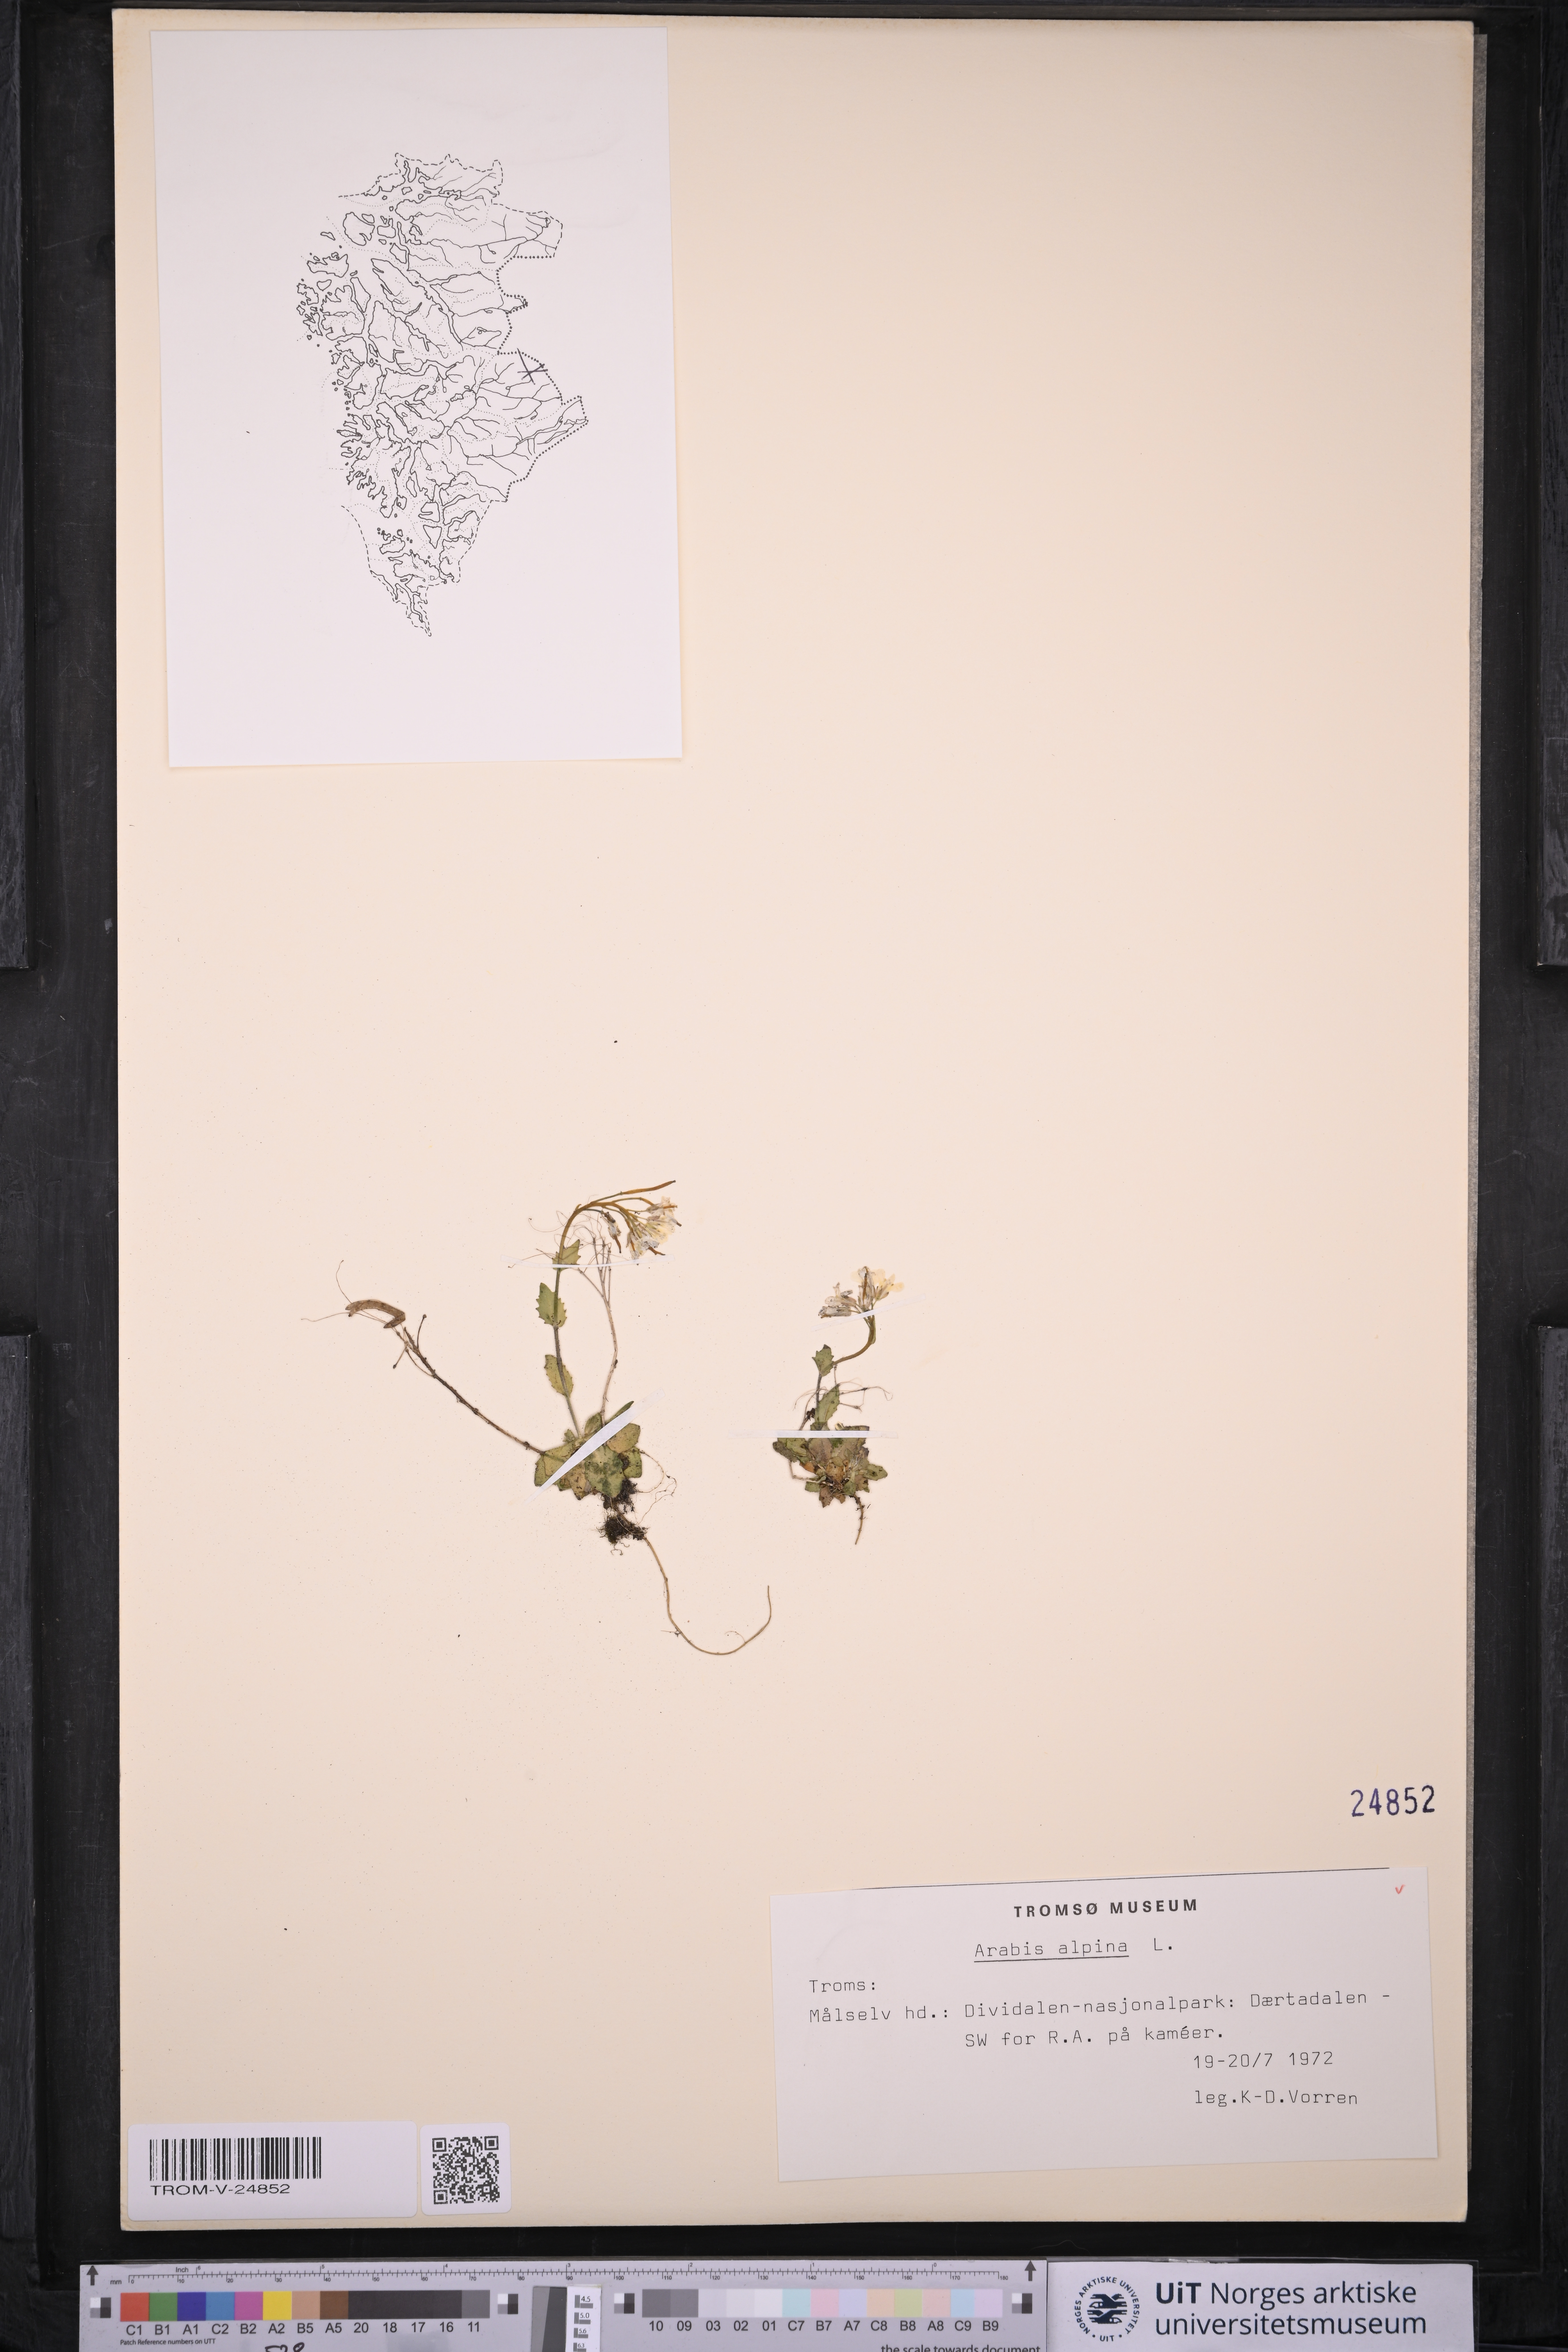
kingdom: Plantae
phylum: Tracheophyta
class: Magnoliopsida
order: Brassicales
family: Brassicaceae
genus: Arabis
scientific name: Arabis alpina
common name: Alpine rock-cress
